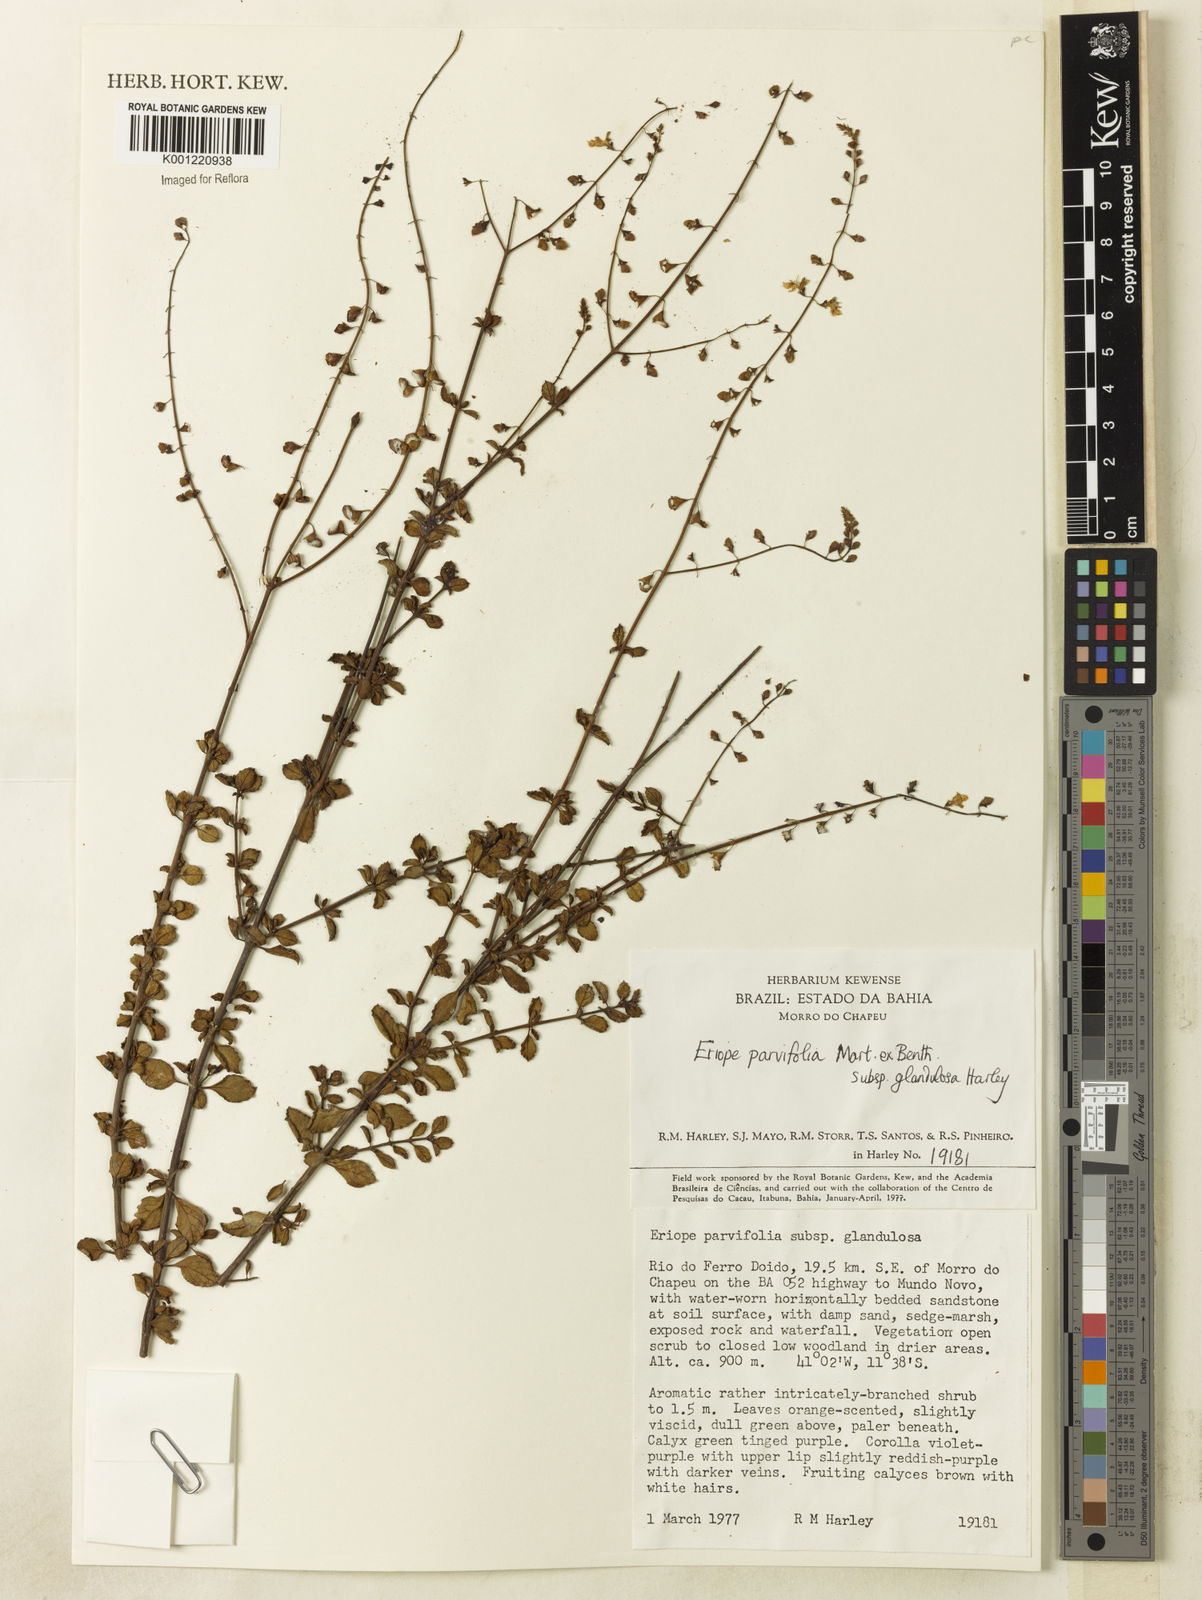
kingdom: Plantae
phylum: Tracheophyta
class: Magnoliopsida
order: Lamiales
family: Lamiaceae
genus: Eriope
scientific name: Eriope glandulosa
